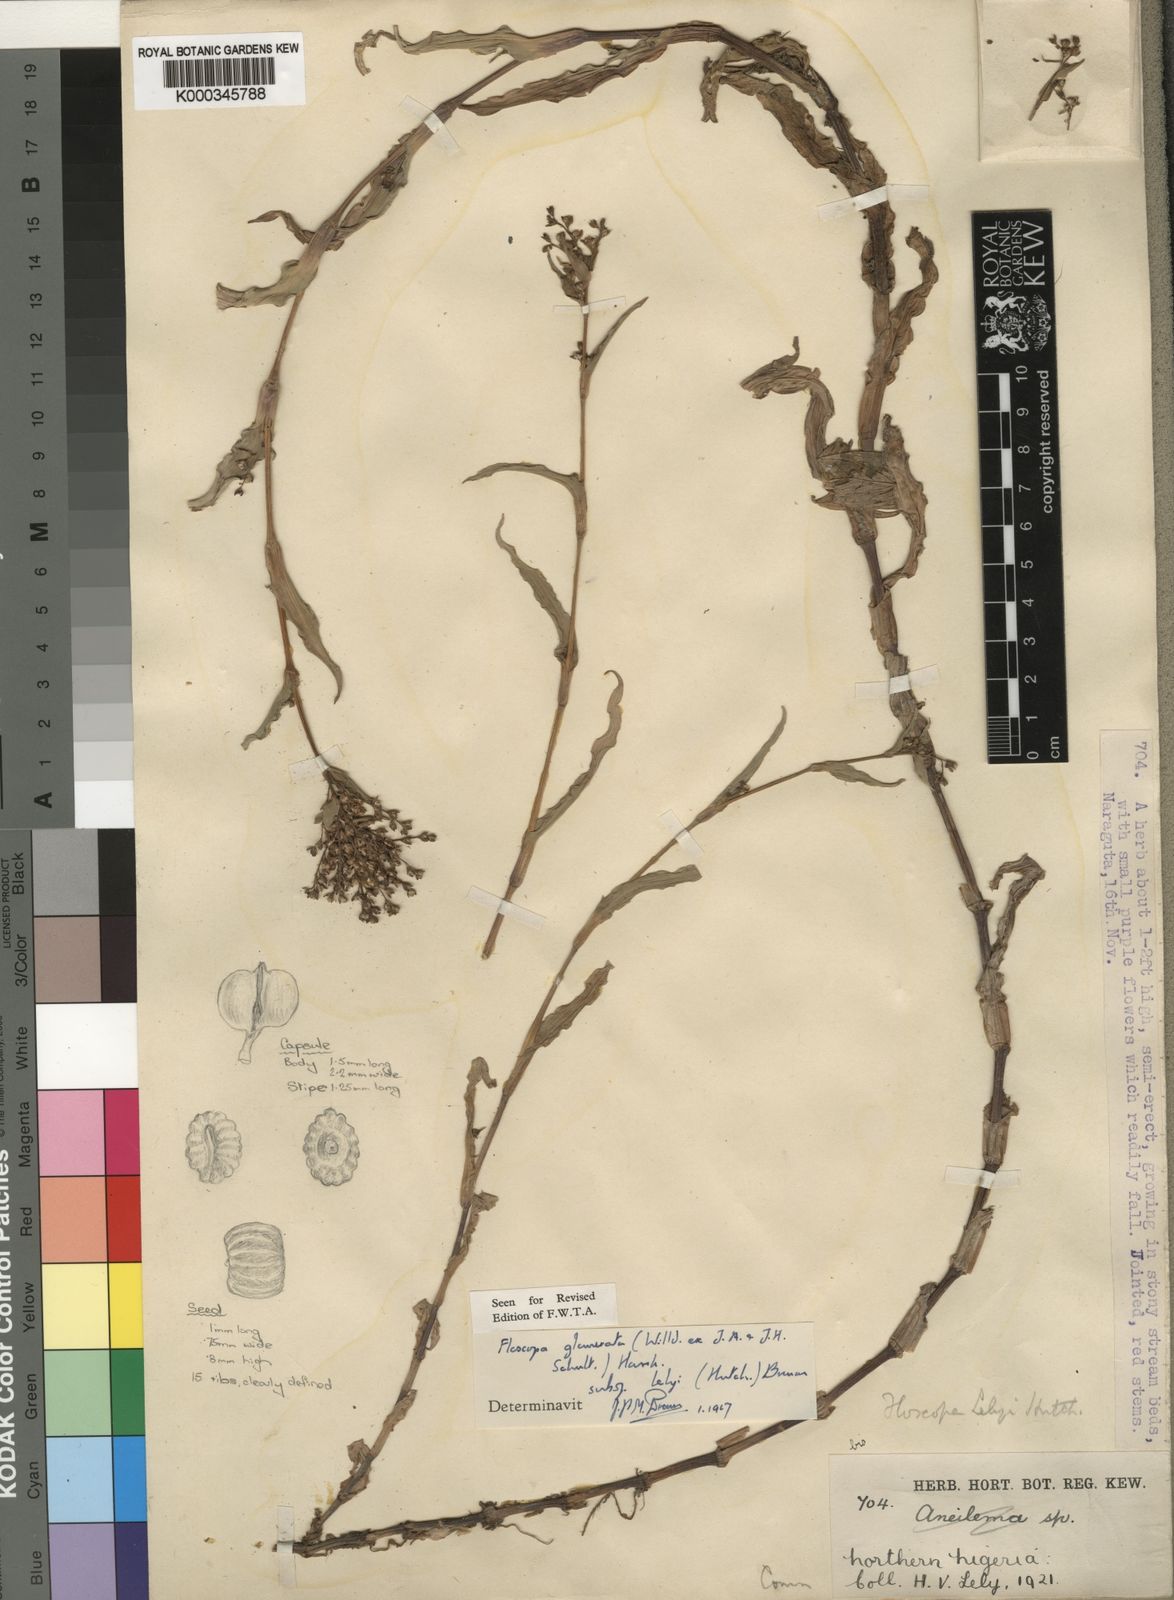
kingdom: Plantae
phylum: Tracheophyta
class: Liliopsida
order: Commelinales
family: Commelinaceae
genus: Floscopa
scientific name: Floscopa glomerata
